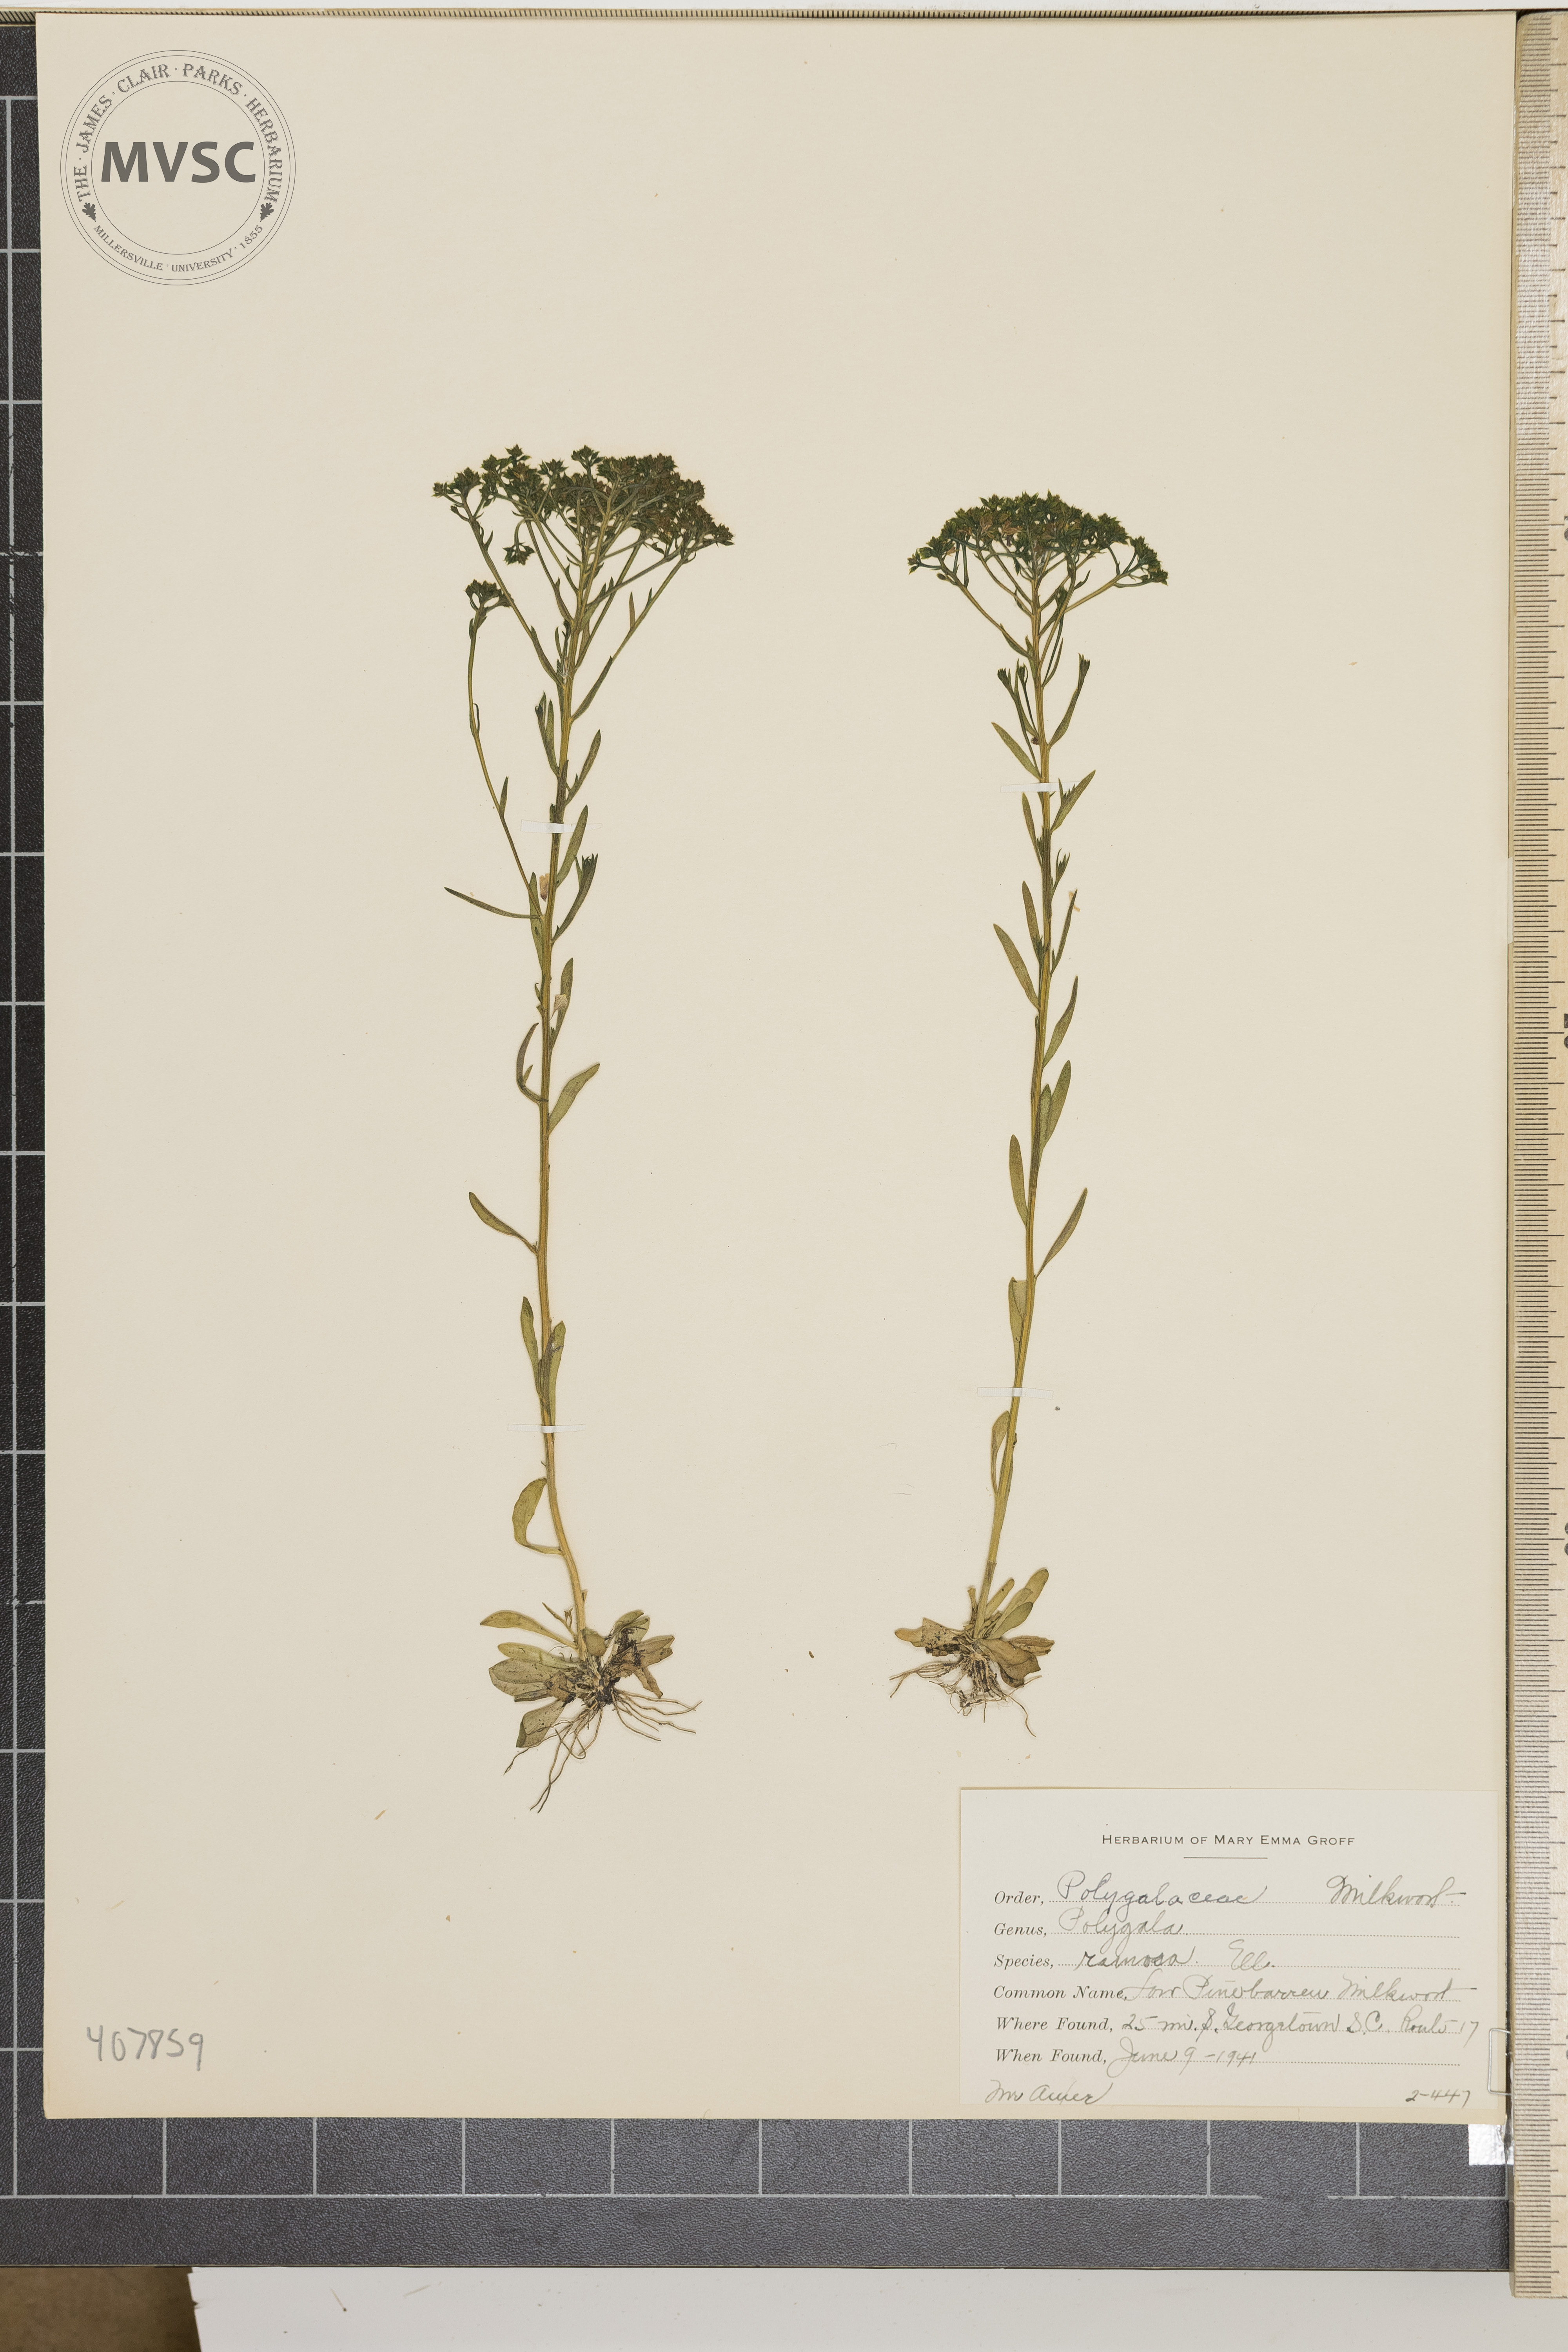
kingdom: Plantae
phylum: Tracheophyta
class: Magnoliopsida
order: Fabales
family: Polygalaceae
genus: Polygala
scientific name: Polygala ramosa
